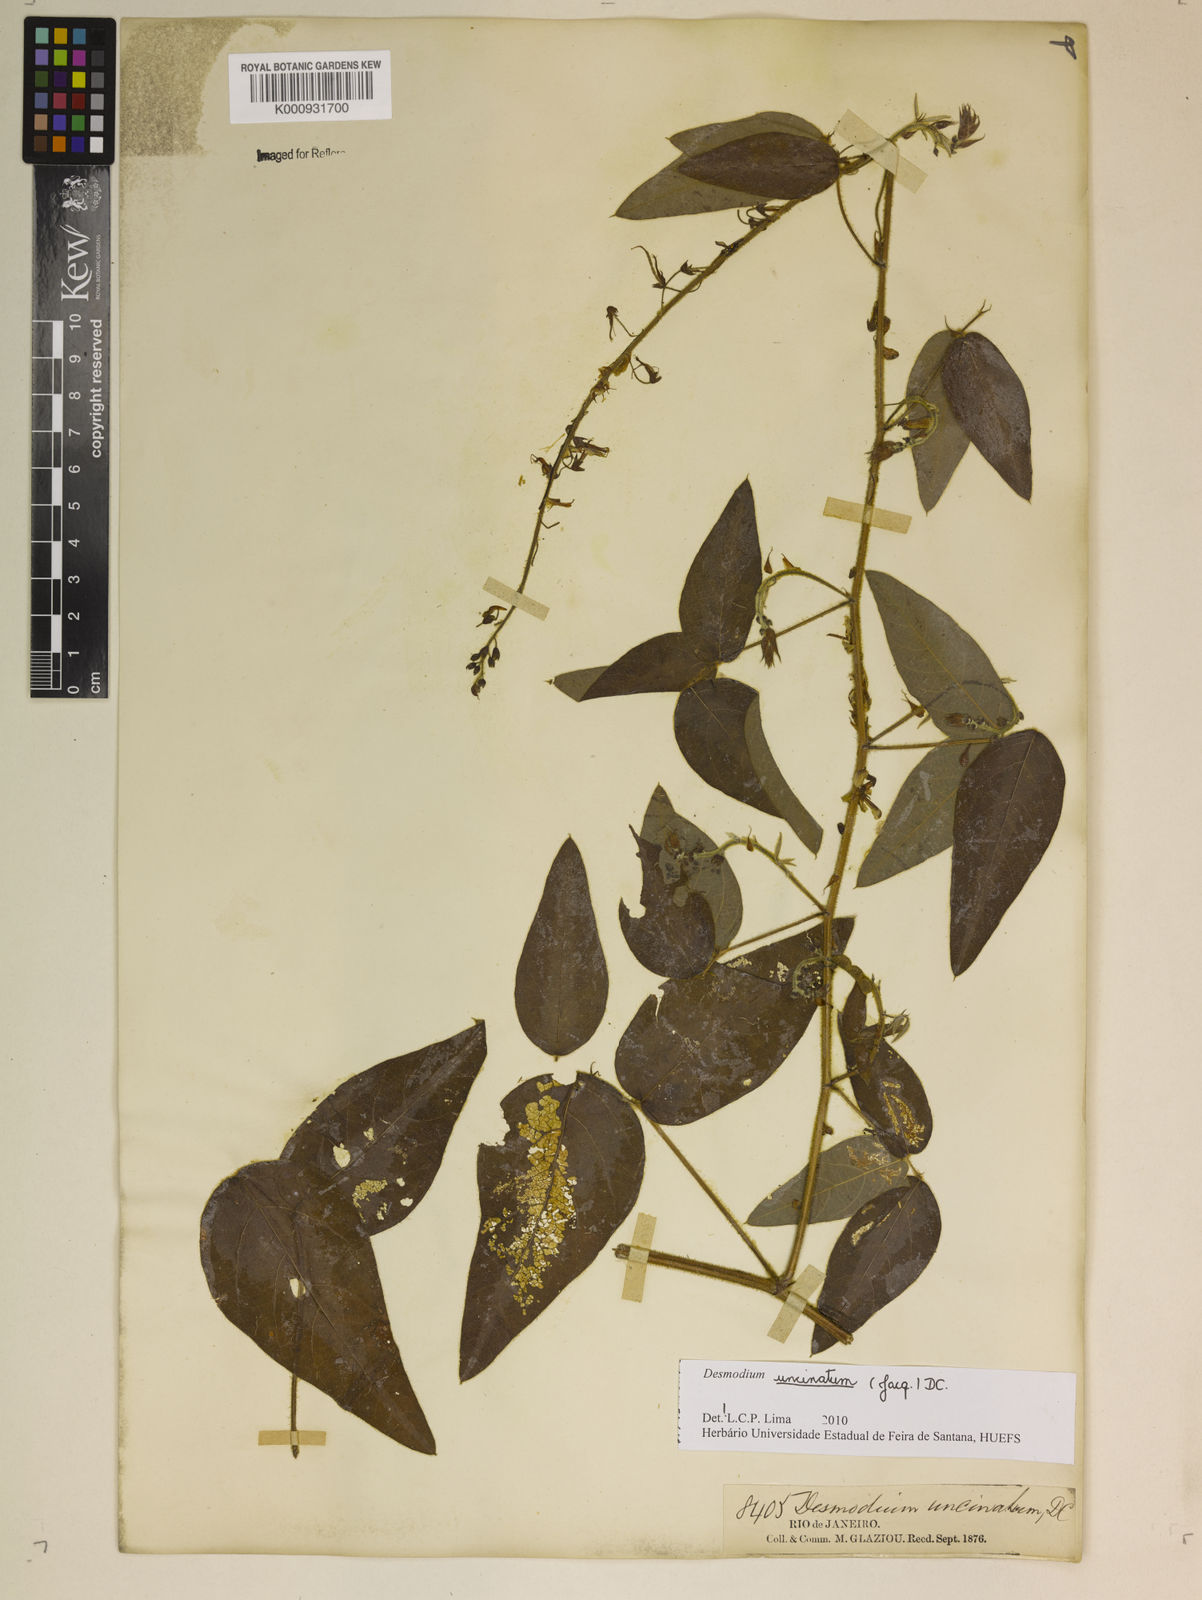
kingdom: Plantae
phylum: Tracheophyta
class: Magnoliopsida
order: Fabales
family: Fabaceae
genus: Desmodium
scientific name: Desmodium uncinatum
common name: Silverleaf desmodium
